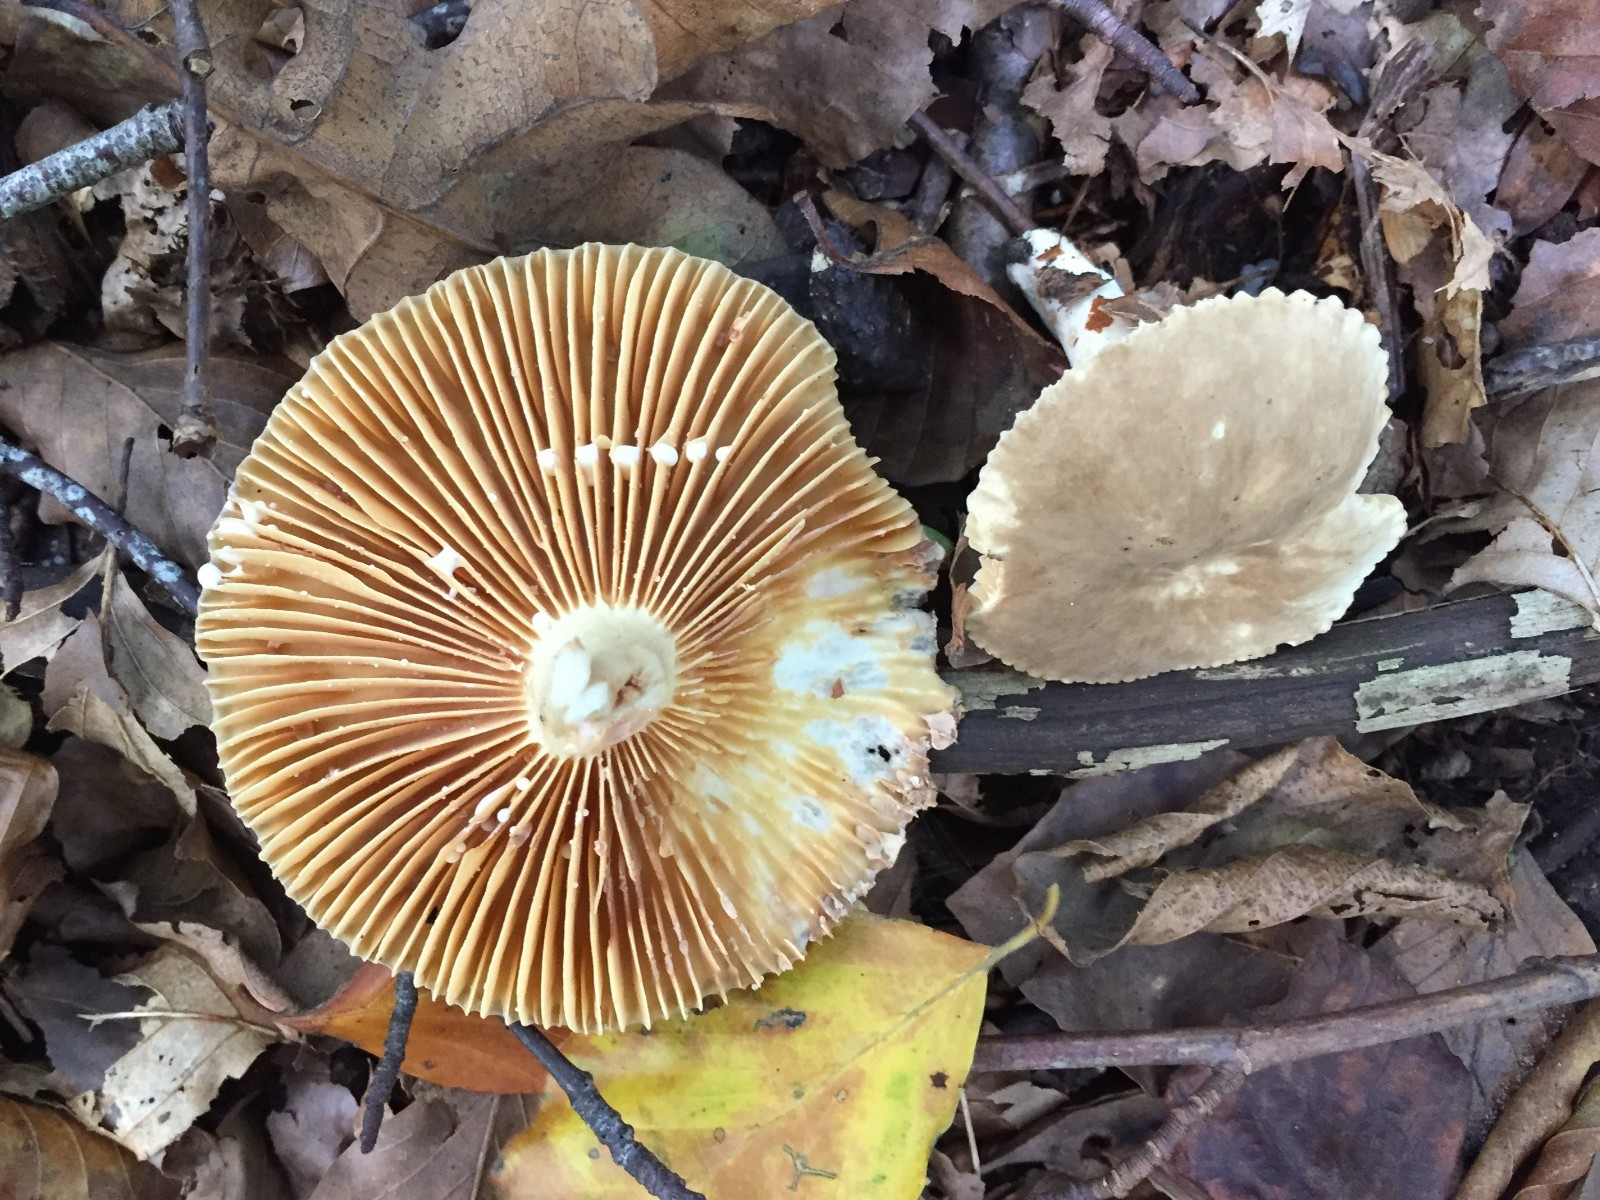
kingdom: Fungi
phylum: Basidiomycota
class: Agaricomycetes
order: Russulales
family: Russulaceae
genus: Lactarius
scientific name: Lactarius ruginosus
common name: gråbrun mælkehat
